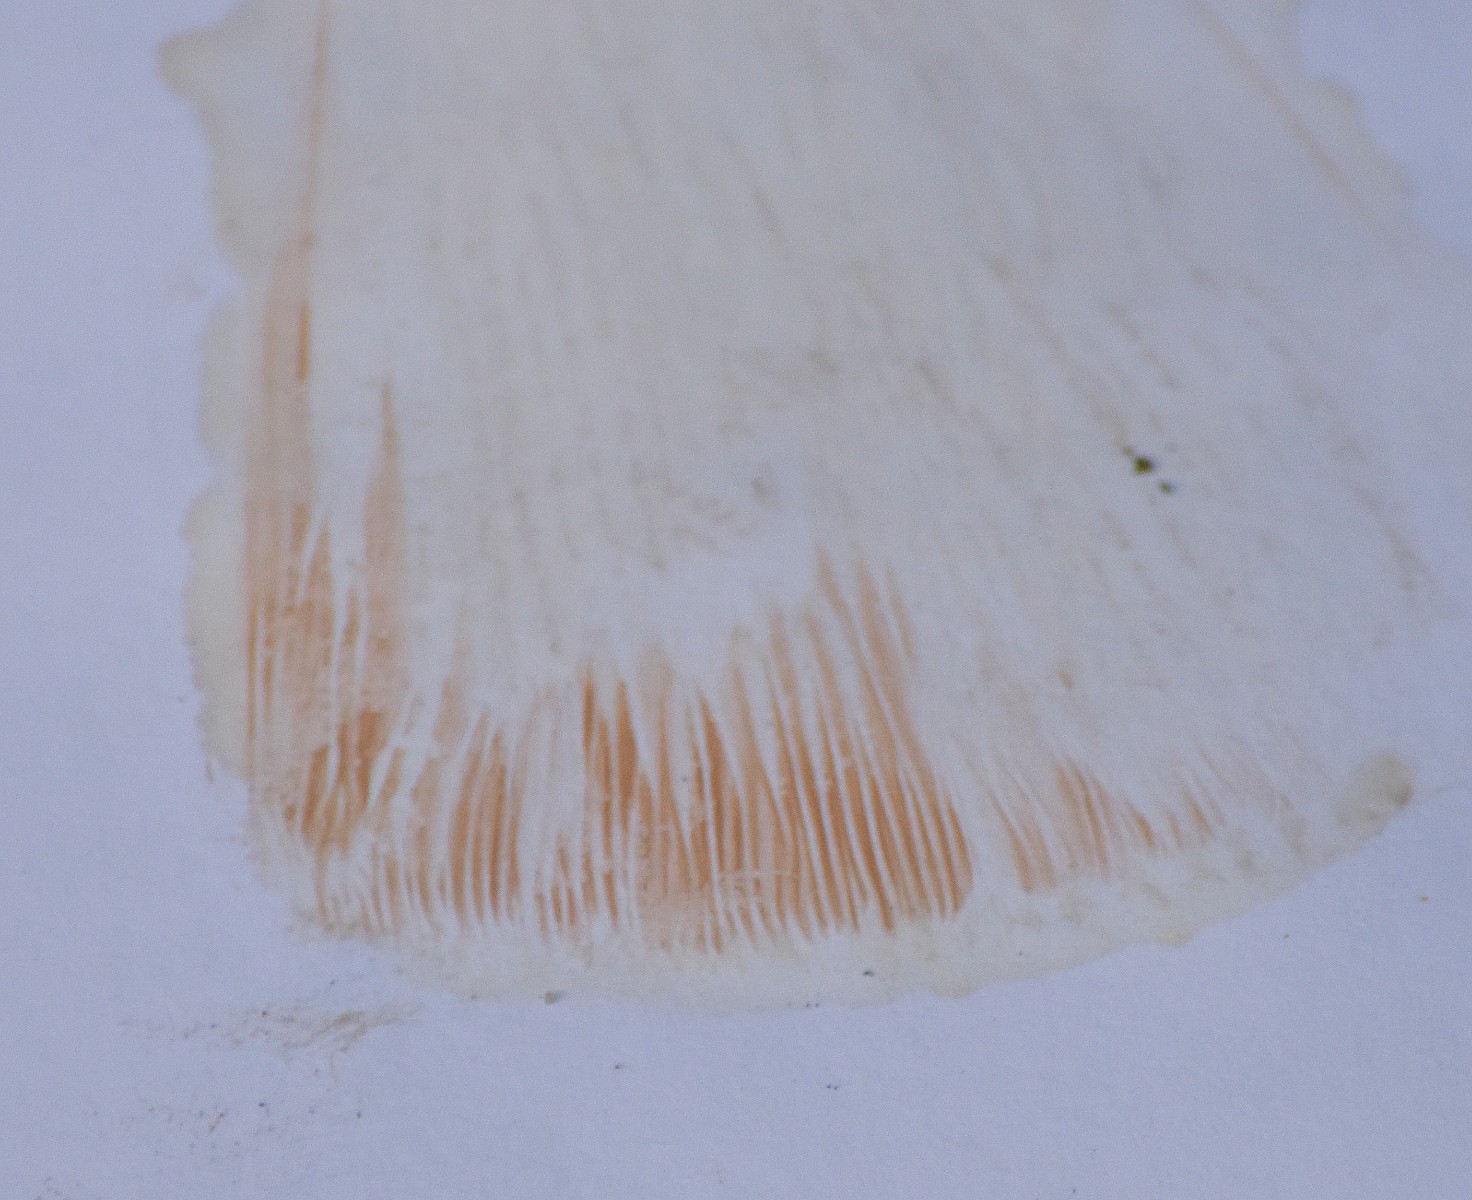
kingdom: Fungi
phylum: Basidiomycota
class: Agaricomycetes
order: Agaricales
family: Pluteaceae
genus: Pluteus
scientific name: Pluteus umbrosus
